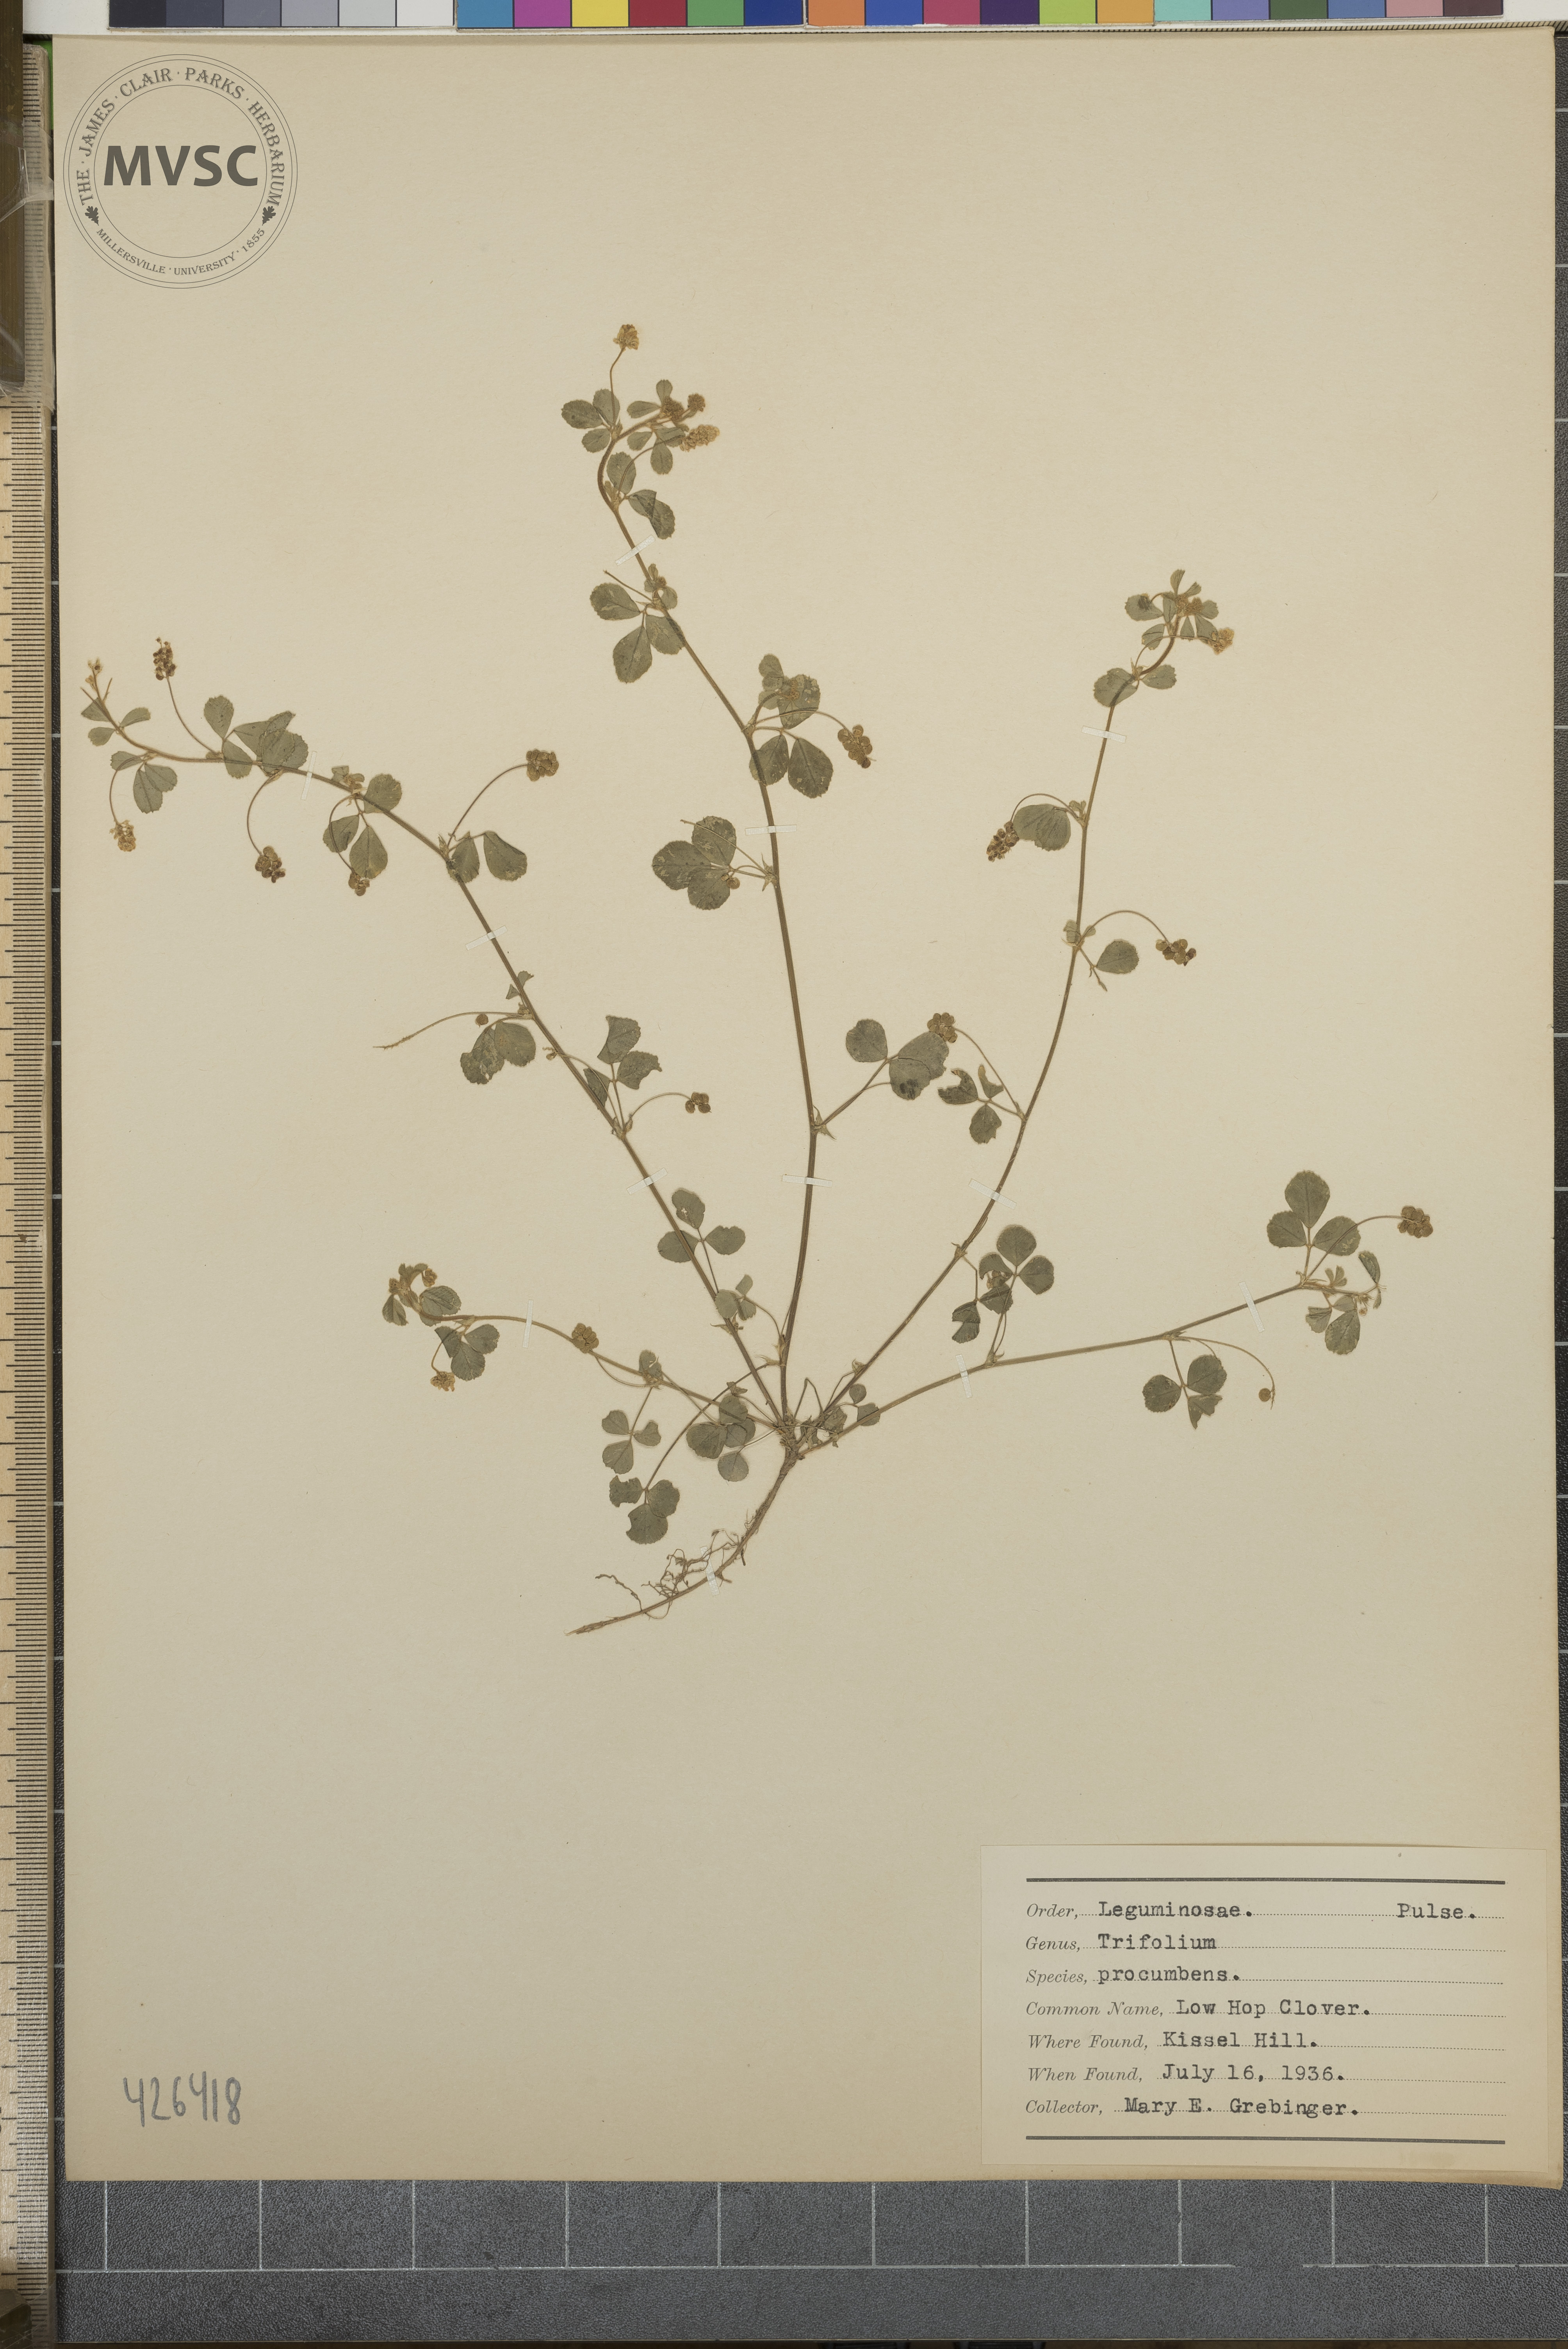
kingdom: Plantae
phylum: Tracheophyta
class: Magnoliopsida
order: Fabales
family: Fabaceae
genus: Trifolium
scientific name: Trifolium campestre
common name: Low hop clover
